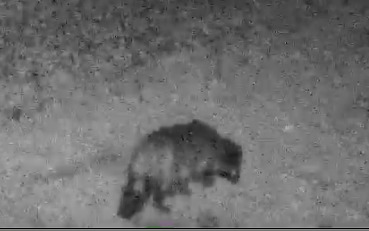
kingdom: Animalia
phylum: Chordata
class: Mammalia
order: Carnivora
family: Canidae
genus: Nyctereutes
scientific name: Nyctereutes procyonoides
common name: Mårhund
